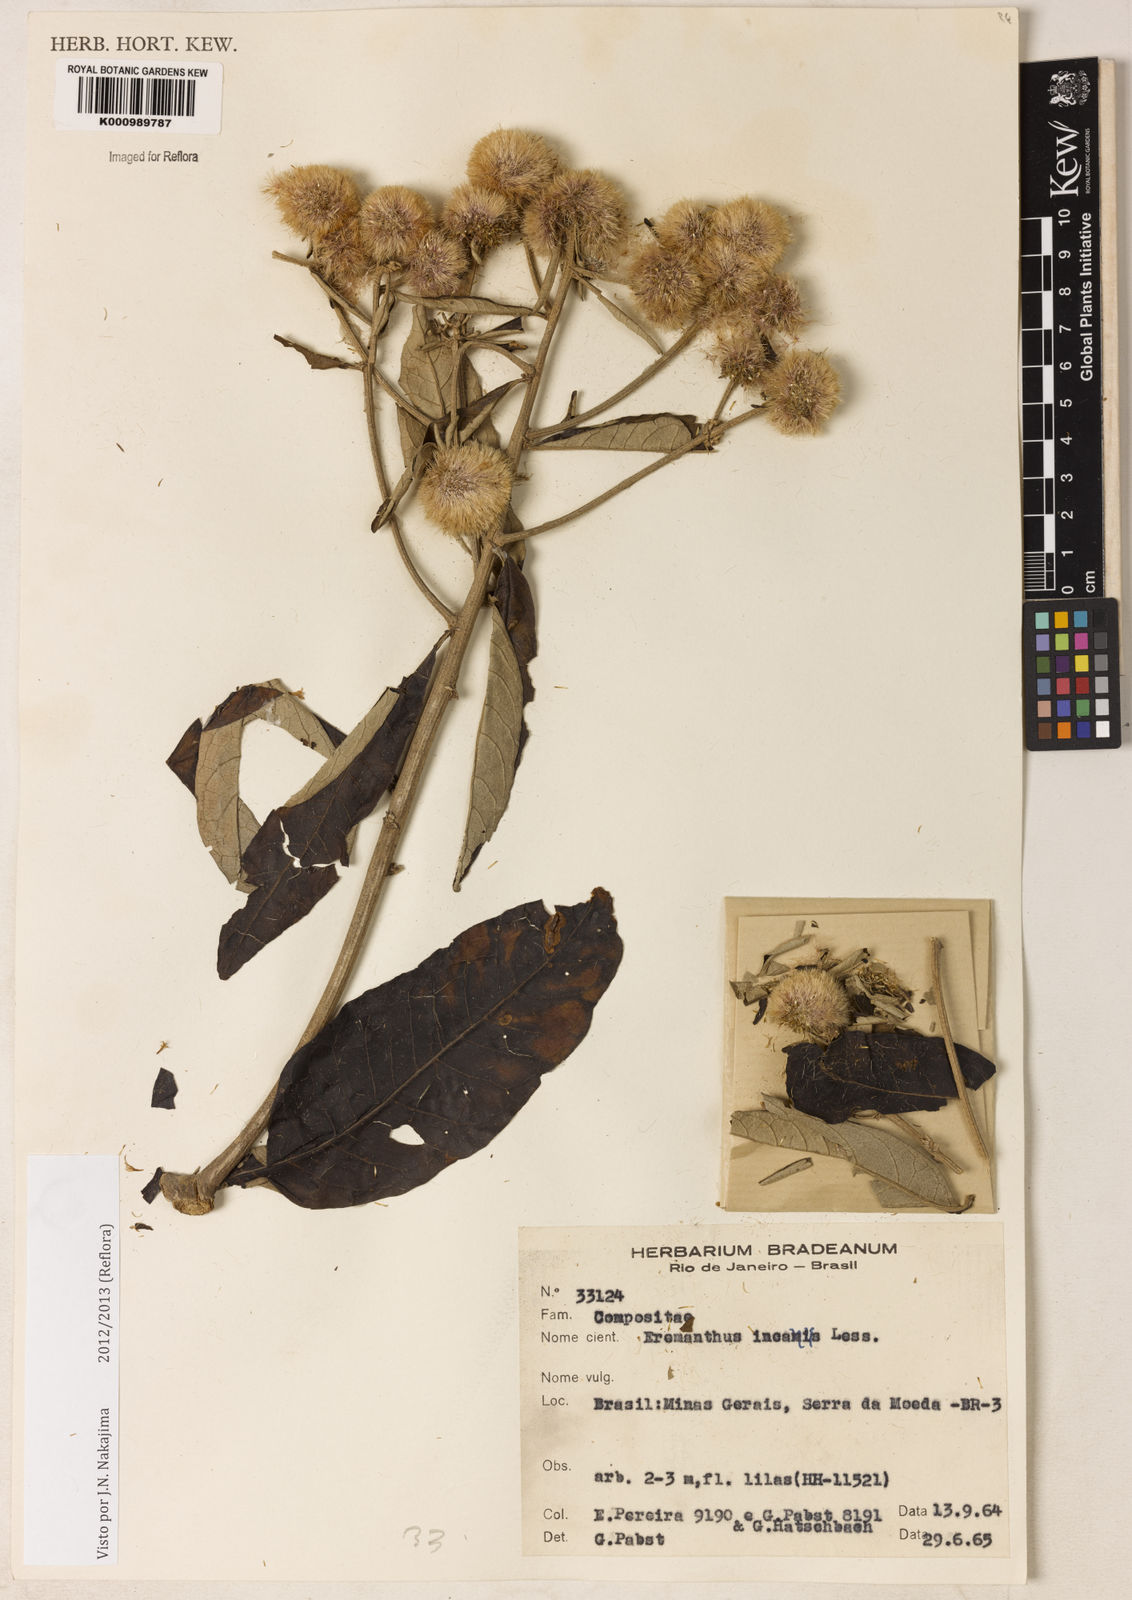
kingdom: Plantae
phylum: Tracheophyta
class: Magnoliopsida
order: Asterales
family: Asteraceae
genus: Eremanthus
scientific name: Eremanthus incanus
